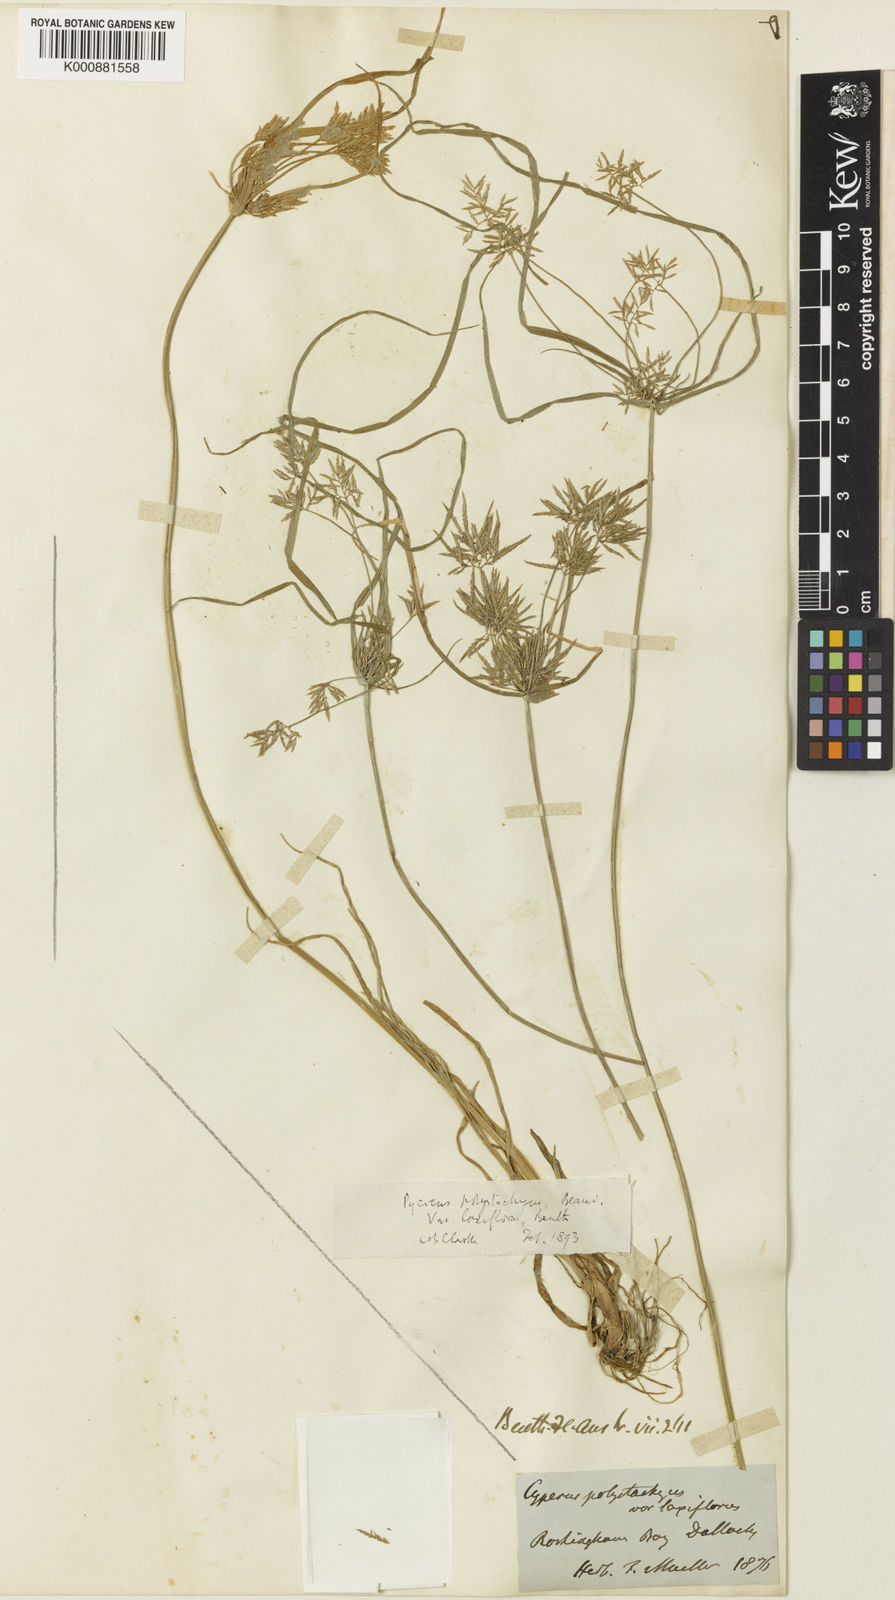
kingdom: Plantae
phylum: Tracheophyta
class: Liliopsida
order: Poales
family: Cyperaceae
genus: Cyperus
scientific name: Cyperus polystachyos
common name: Bunchy flat sedge
